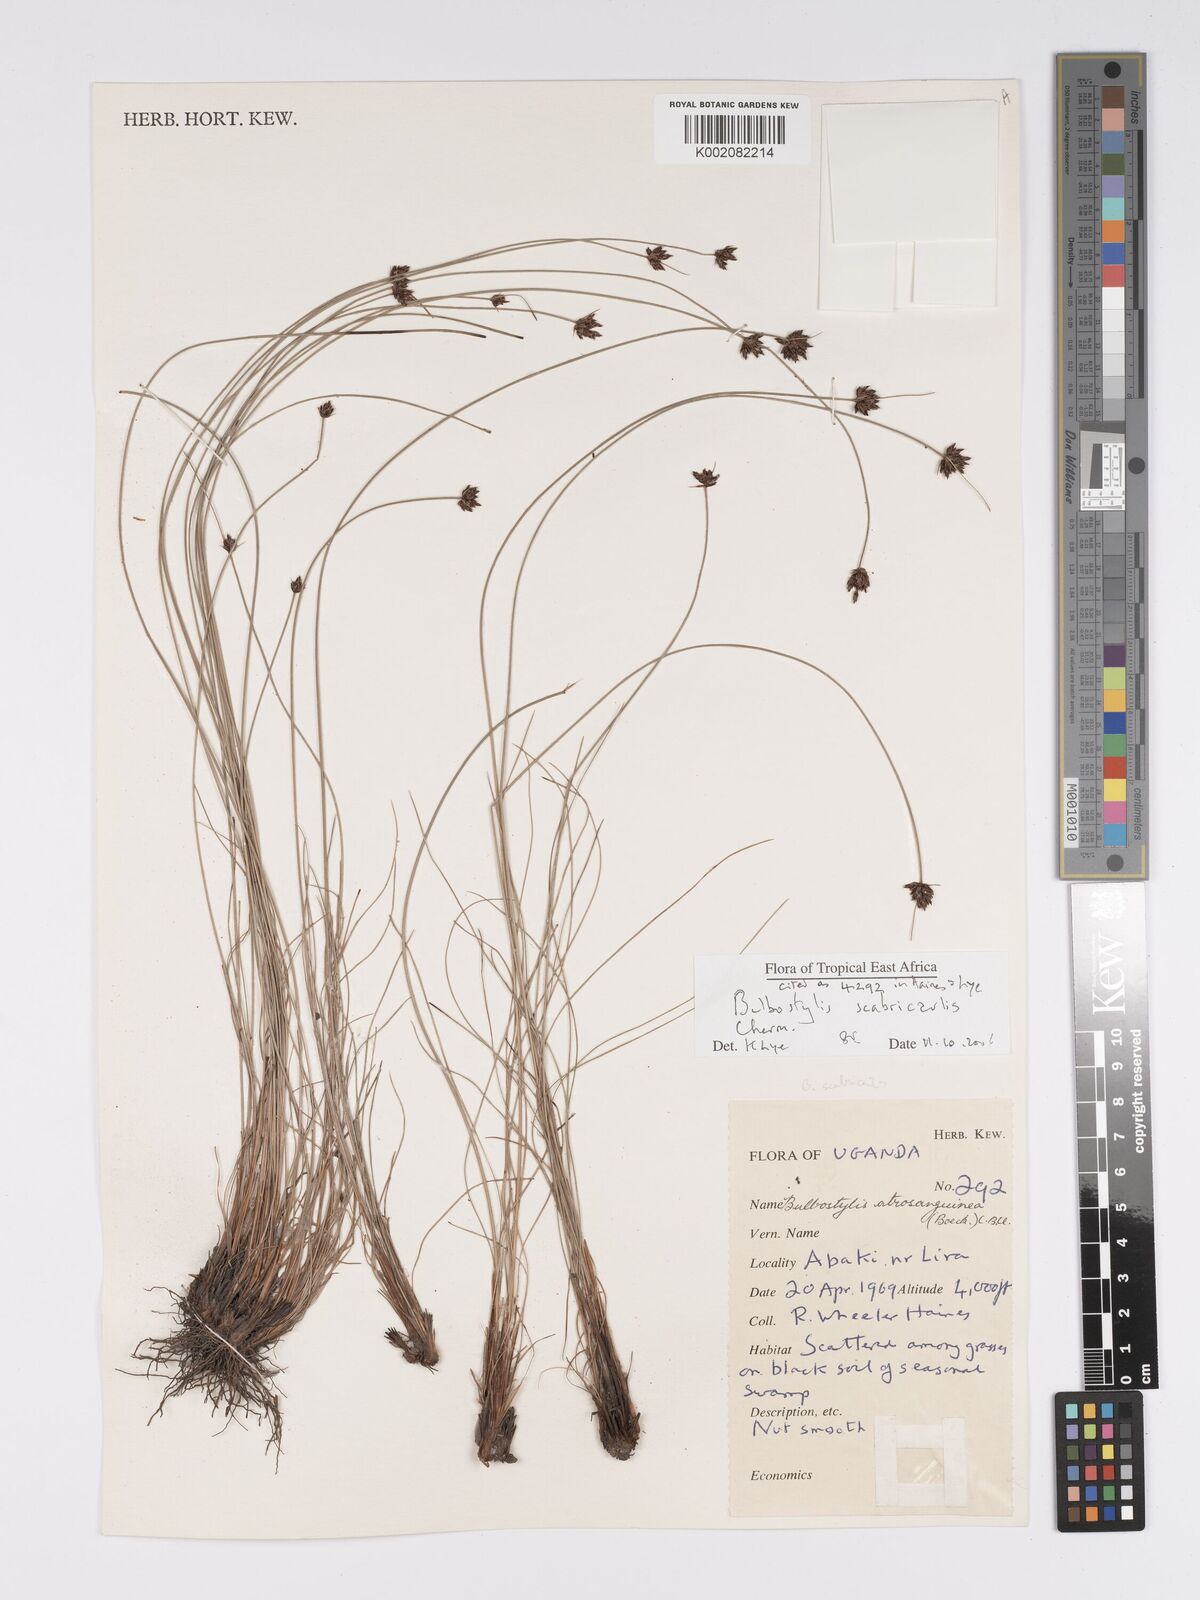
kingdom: Plantae
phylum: Tracheophyta
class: Liliopsida
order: Poales
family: Cyperaceae
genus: Bulbostylis
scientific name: Bulbostylis scabricaulis
